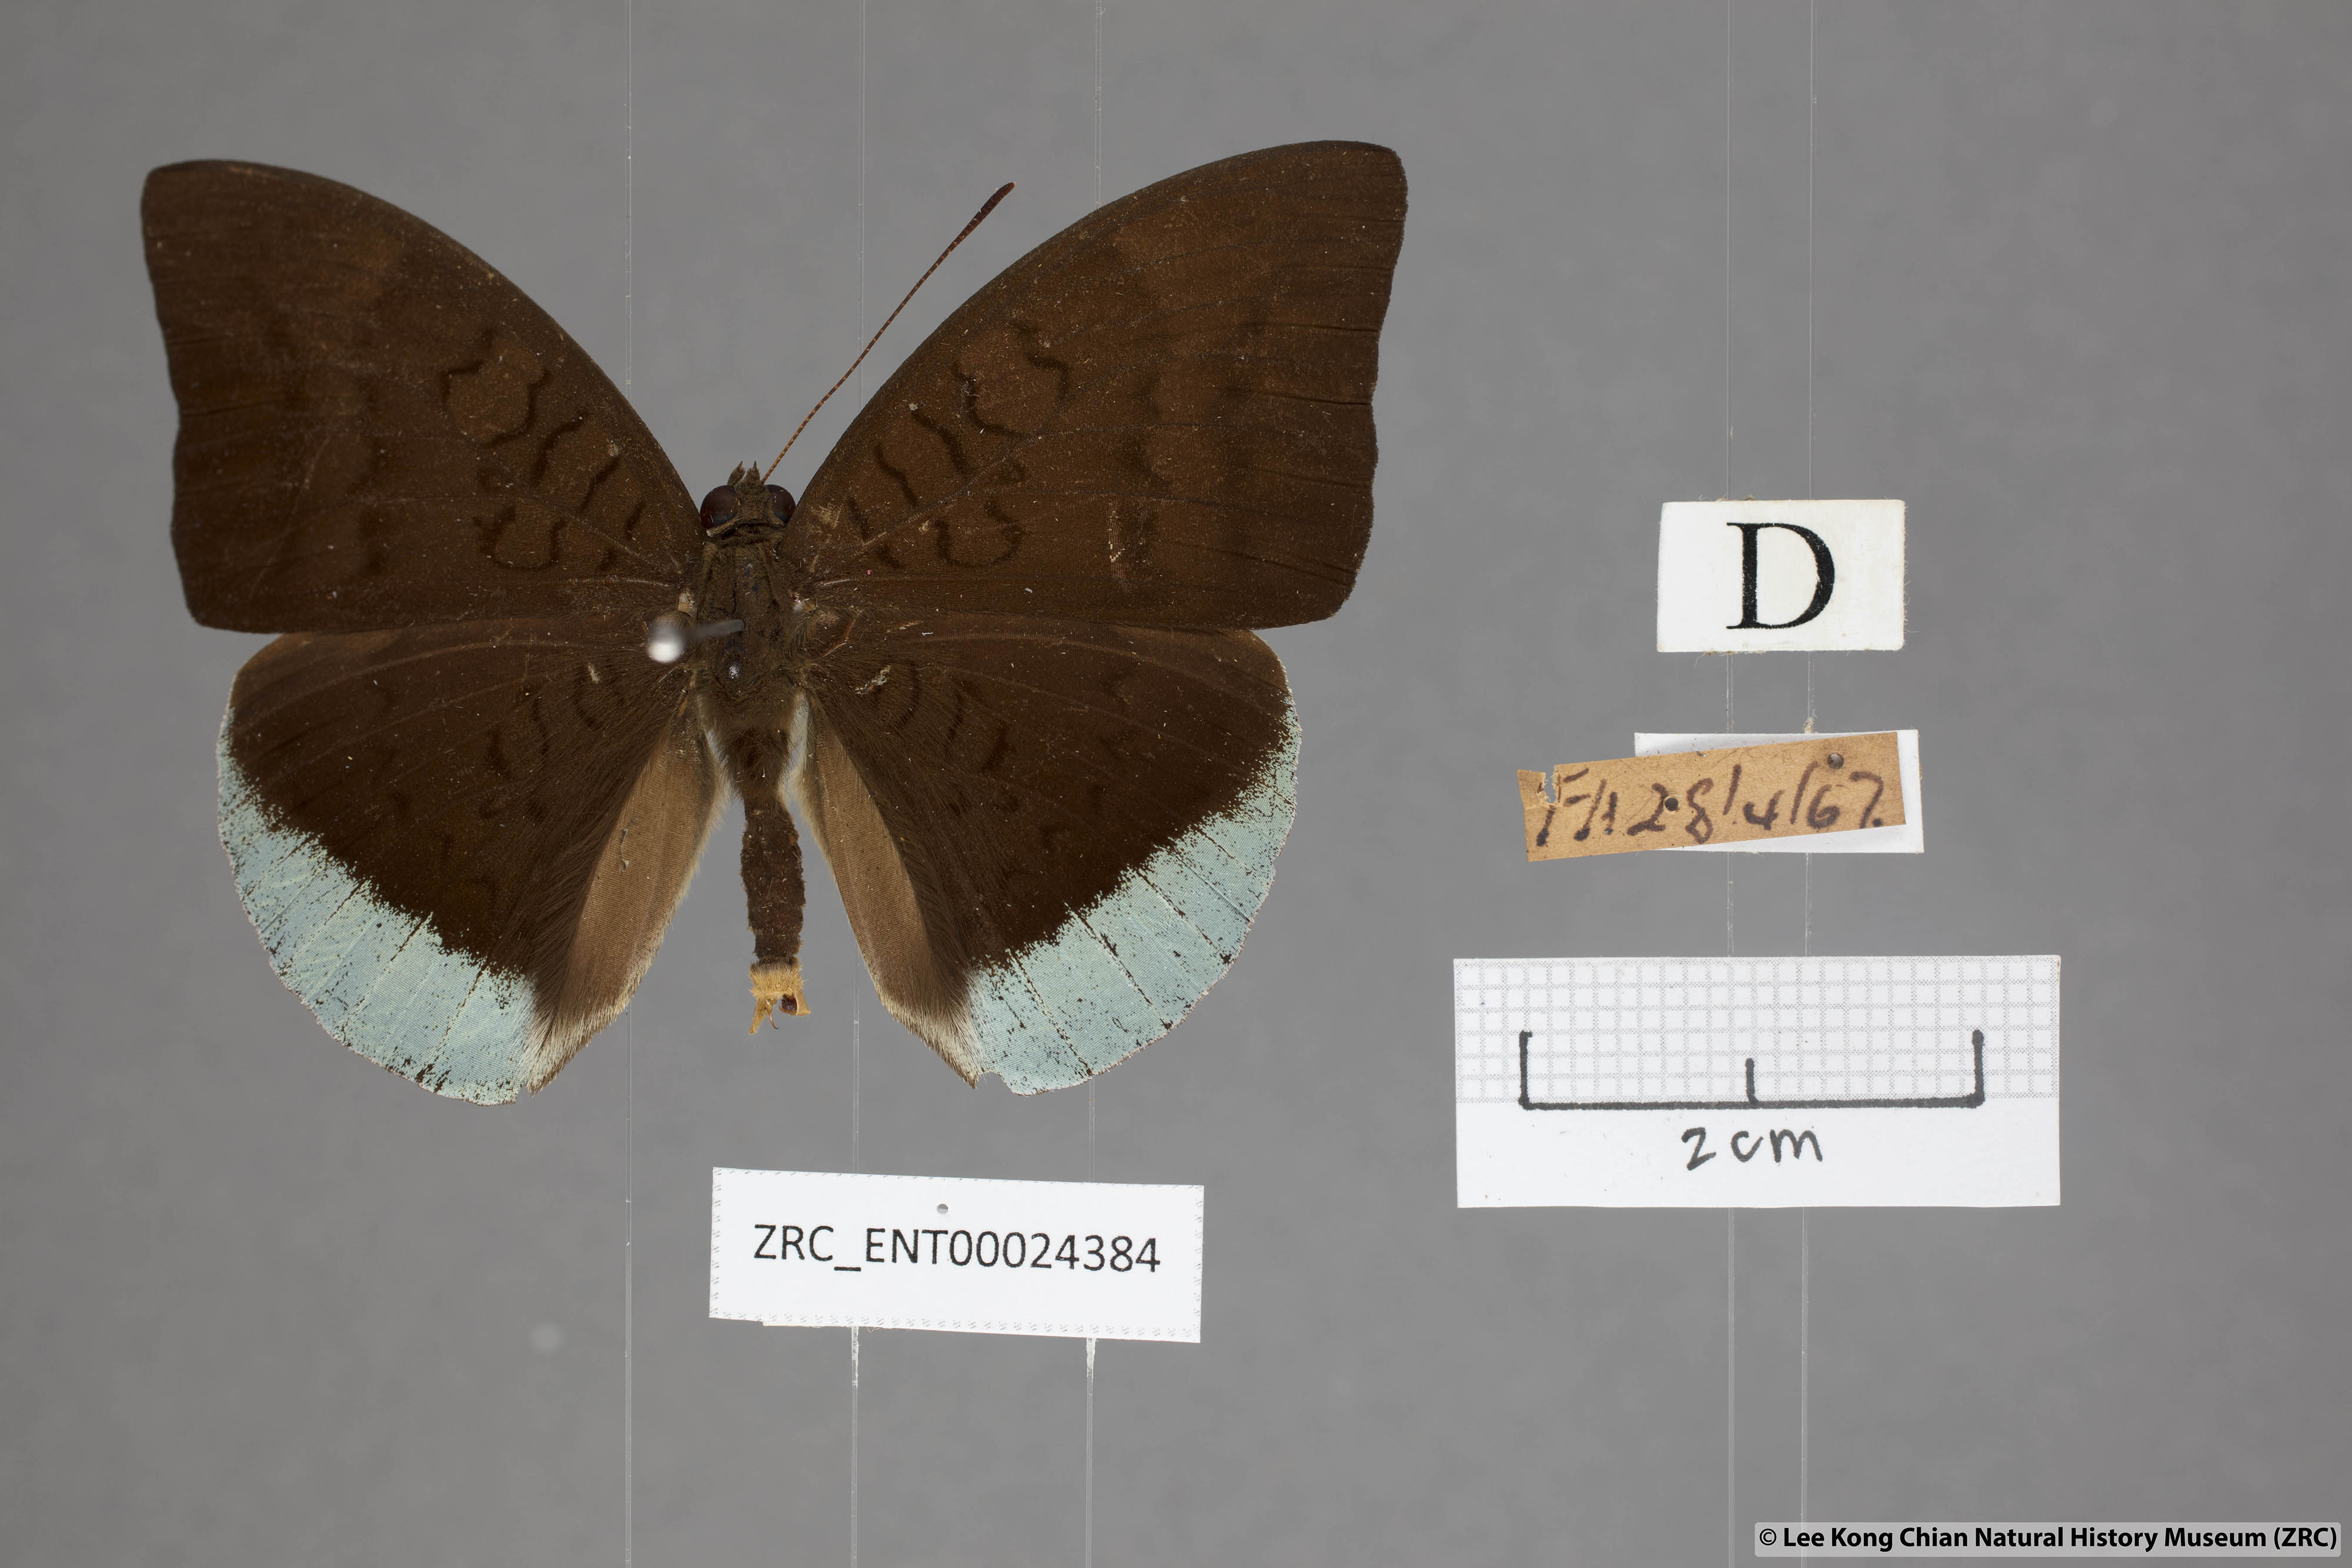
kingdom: Animalia
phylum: Arthropoda
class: Insecta
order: Lepidoptera
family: Nymphalidae
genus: Tanaecia
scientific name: Tanaecia julii
